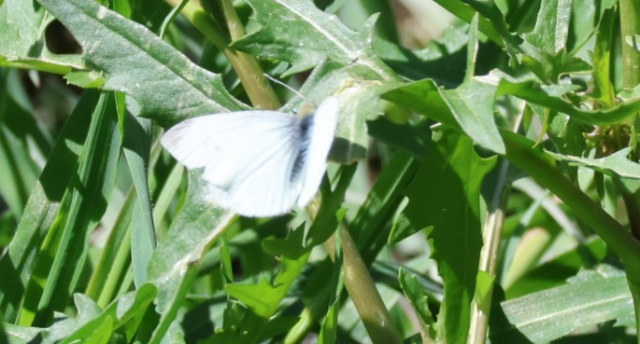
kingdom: Animalia
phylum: Arthropoda
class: Insecta
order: Lepidoptera
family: Pieridae
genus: Pieris
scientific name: Pieris rapae
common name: Cabbage White
